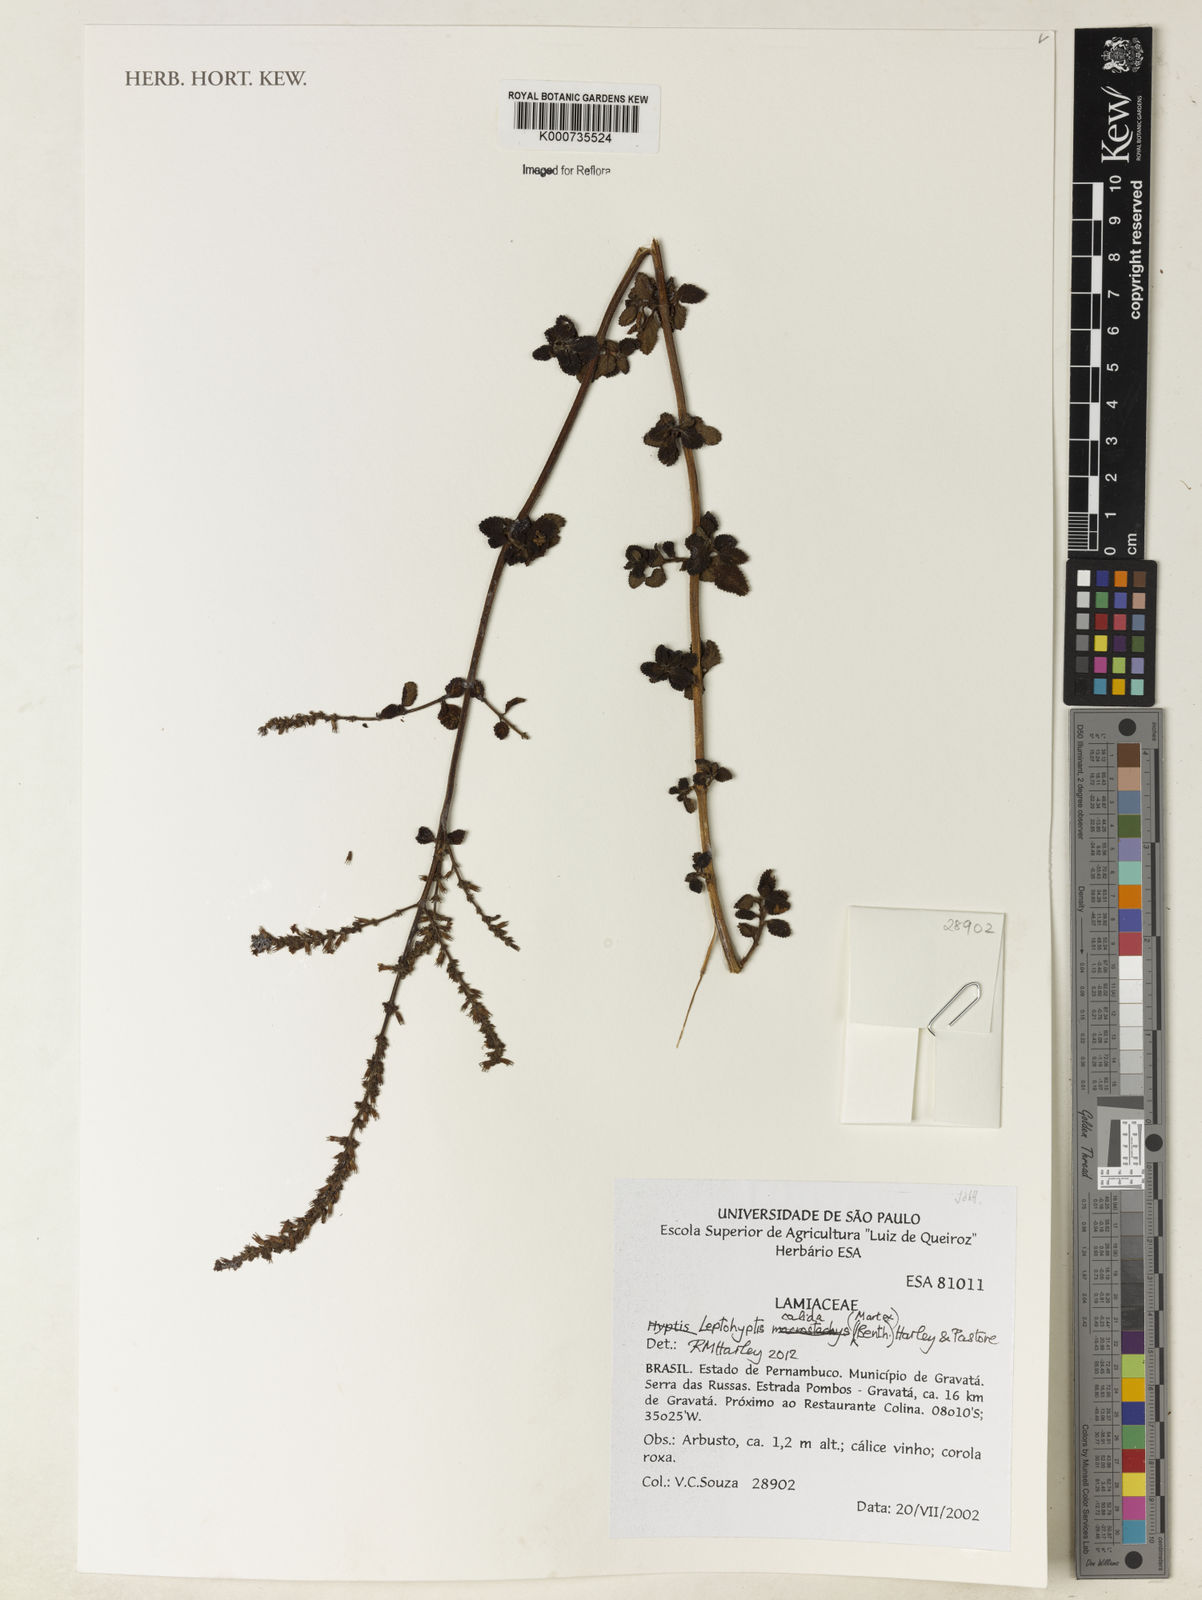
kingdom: Plantae
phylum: Tracheophyta
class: Magnoliopsida
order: Lamiales
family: Lamiaceae
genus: Leptohyptis
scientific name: Leptohyptis calida
